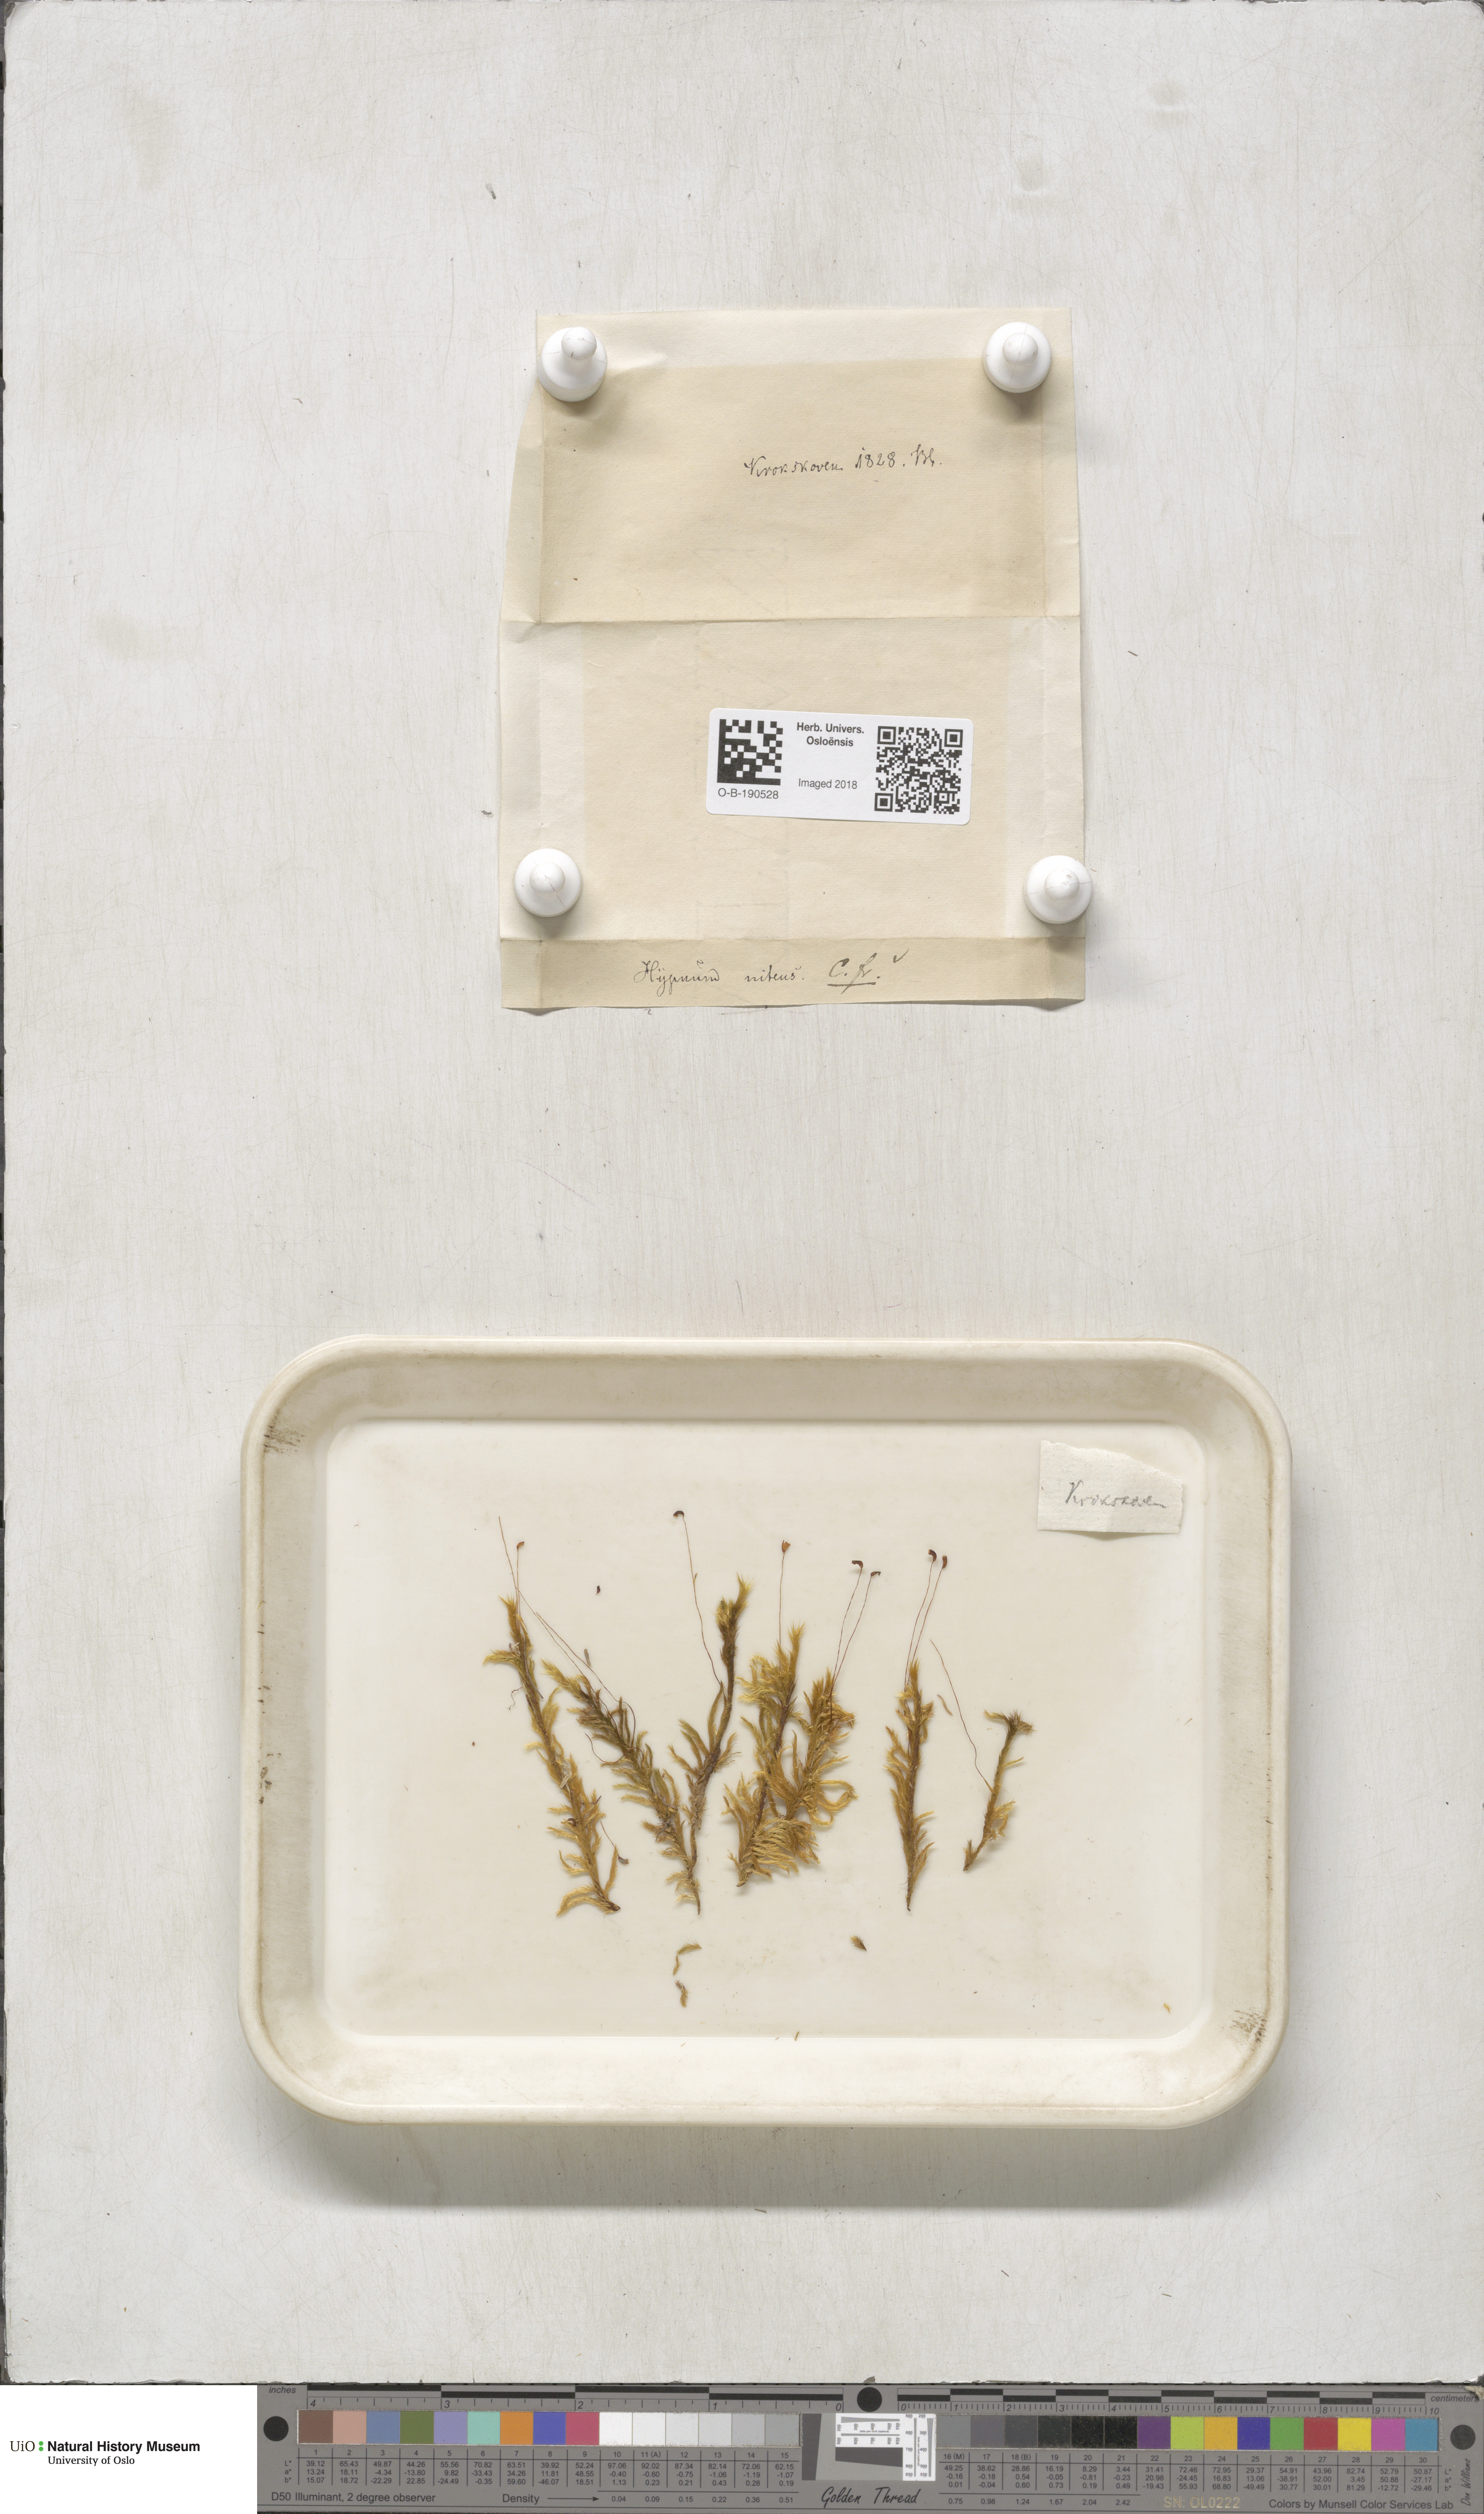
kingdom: Plantae
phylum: Bryophyta
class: Bryopsida
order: Hypnales
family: Amblystegiaceae
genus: Tomentypnum
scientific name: Tomentypnum nitens
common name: Golden fuzzy fen moss
